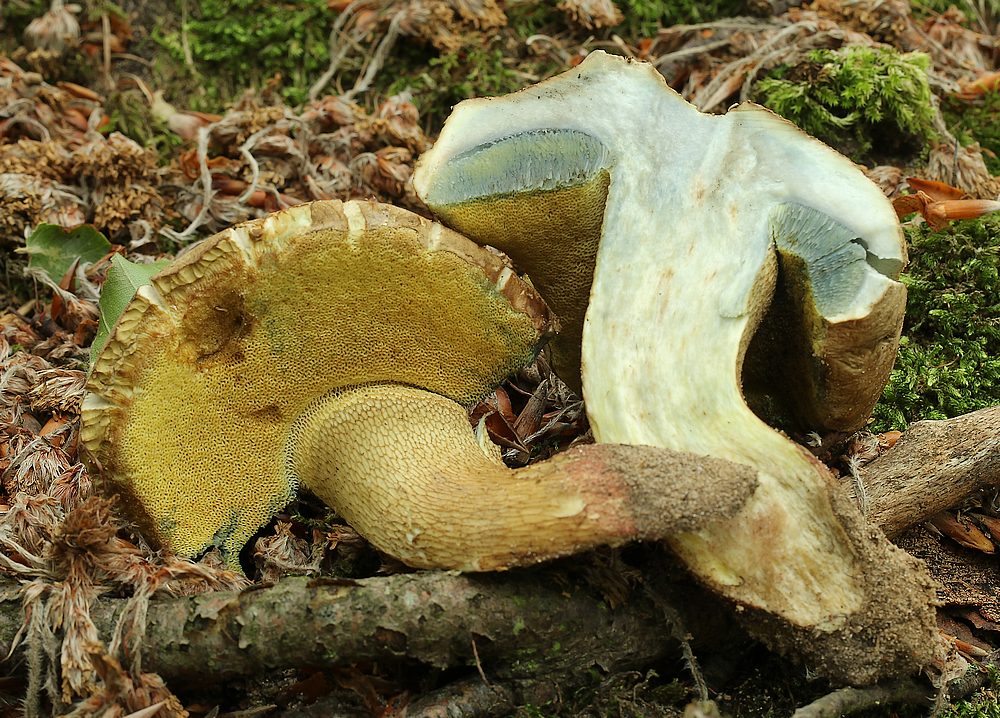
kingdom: Fungi
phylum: Basidiomycota
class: Agaricomycetes
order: Boletales
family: Boletaceae
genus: Caloboletus
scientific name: Caloboletus calopus
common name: skønfodet rørhat
